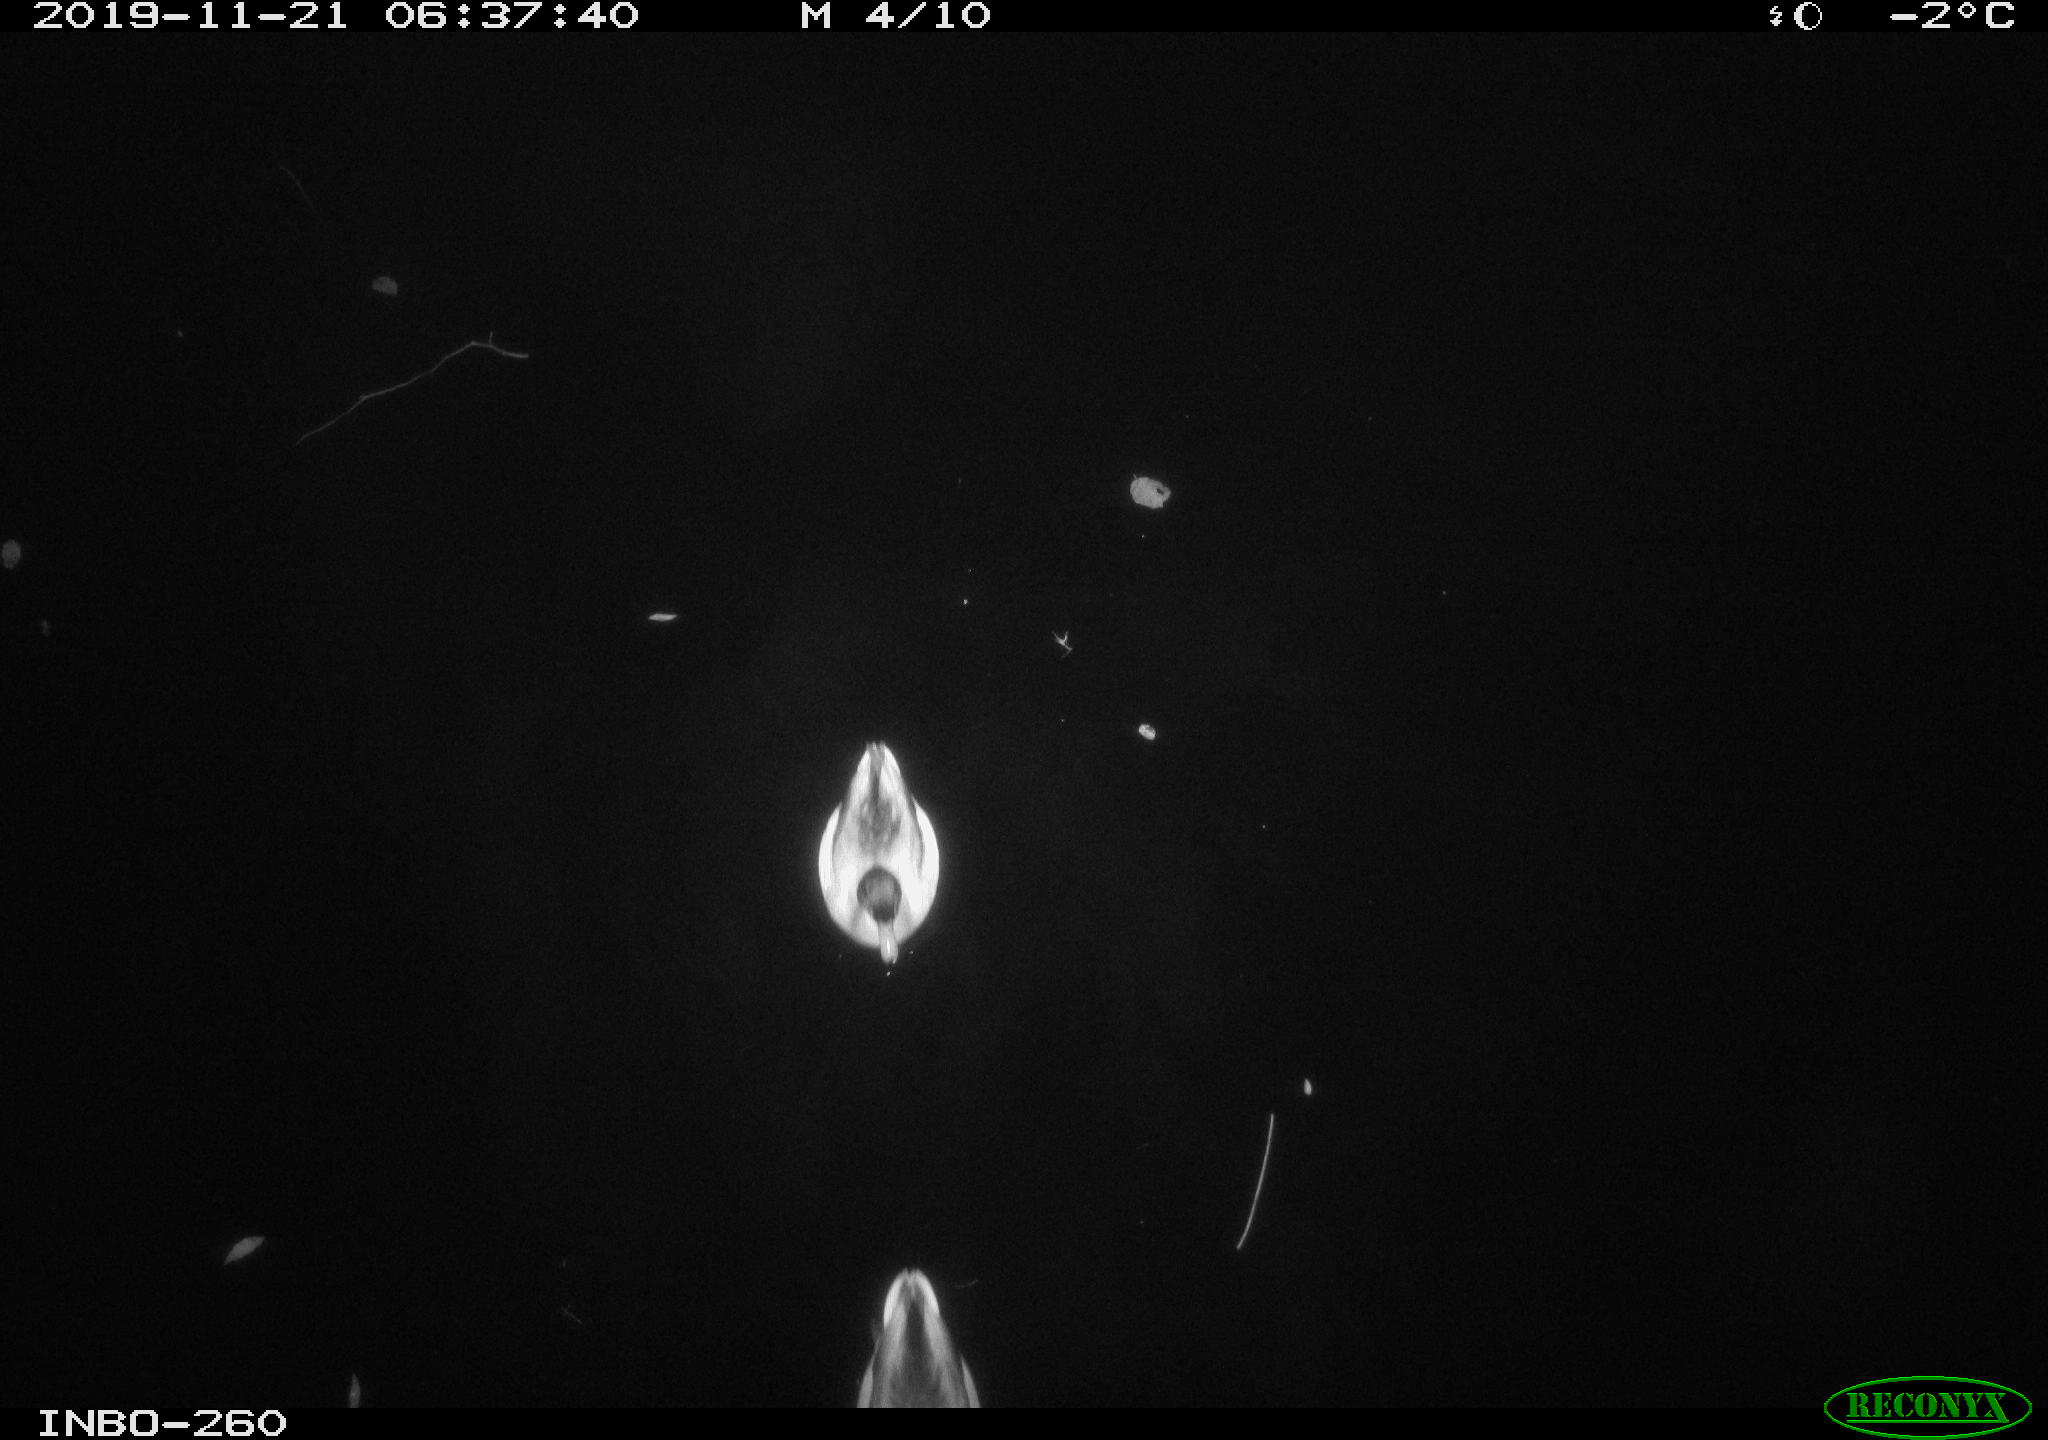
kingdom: Animalia
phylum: Chordata
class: Aves
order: Anseriformes
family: Anatidae
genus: Anas
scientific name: Anas platyrhynchos
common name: Mallard
